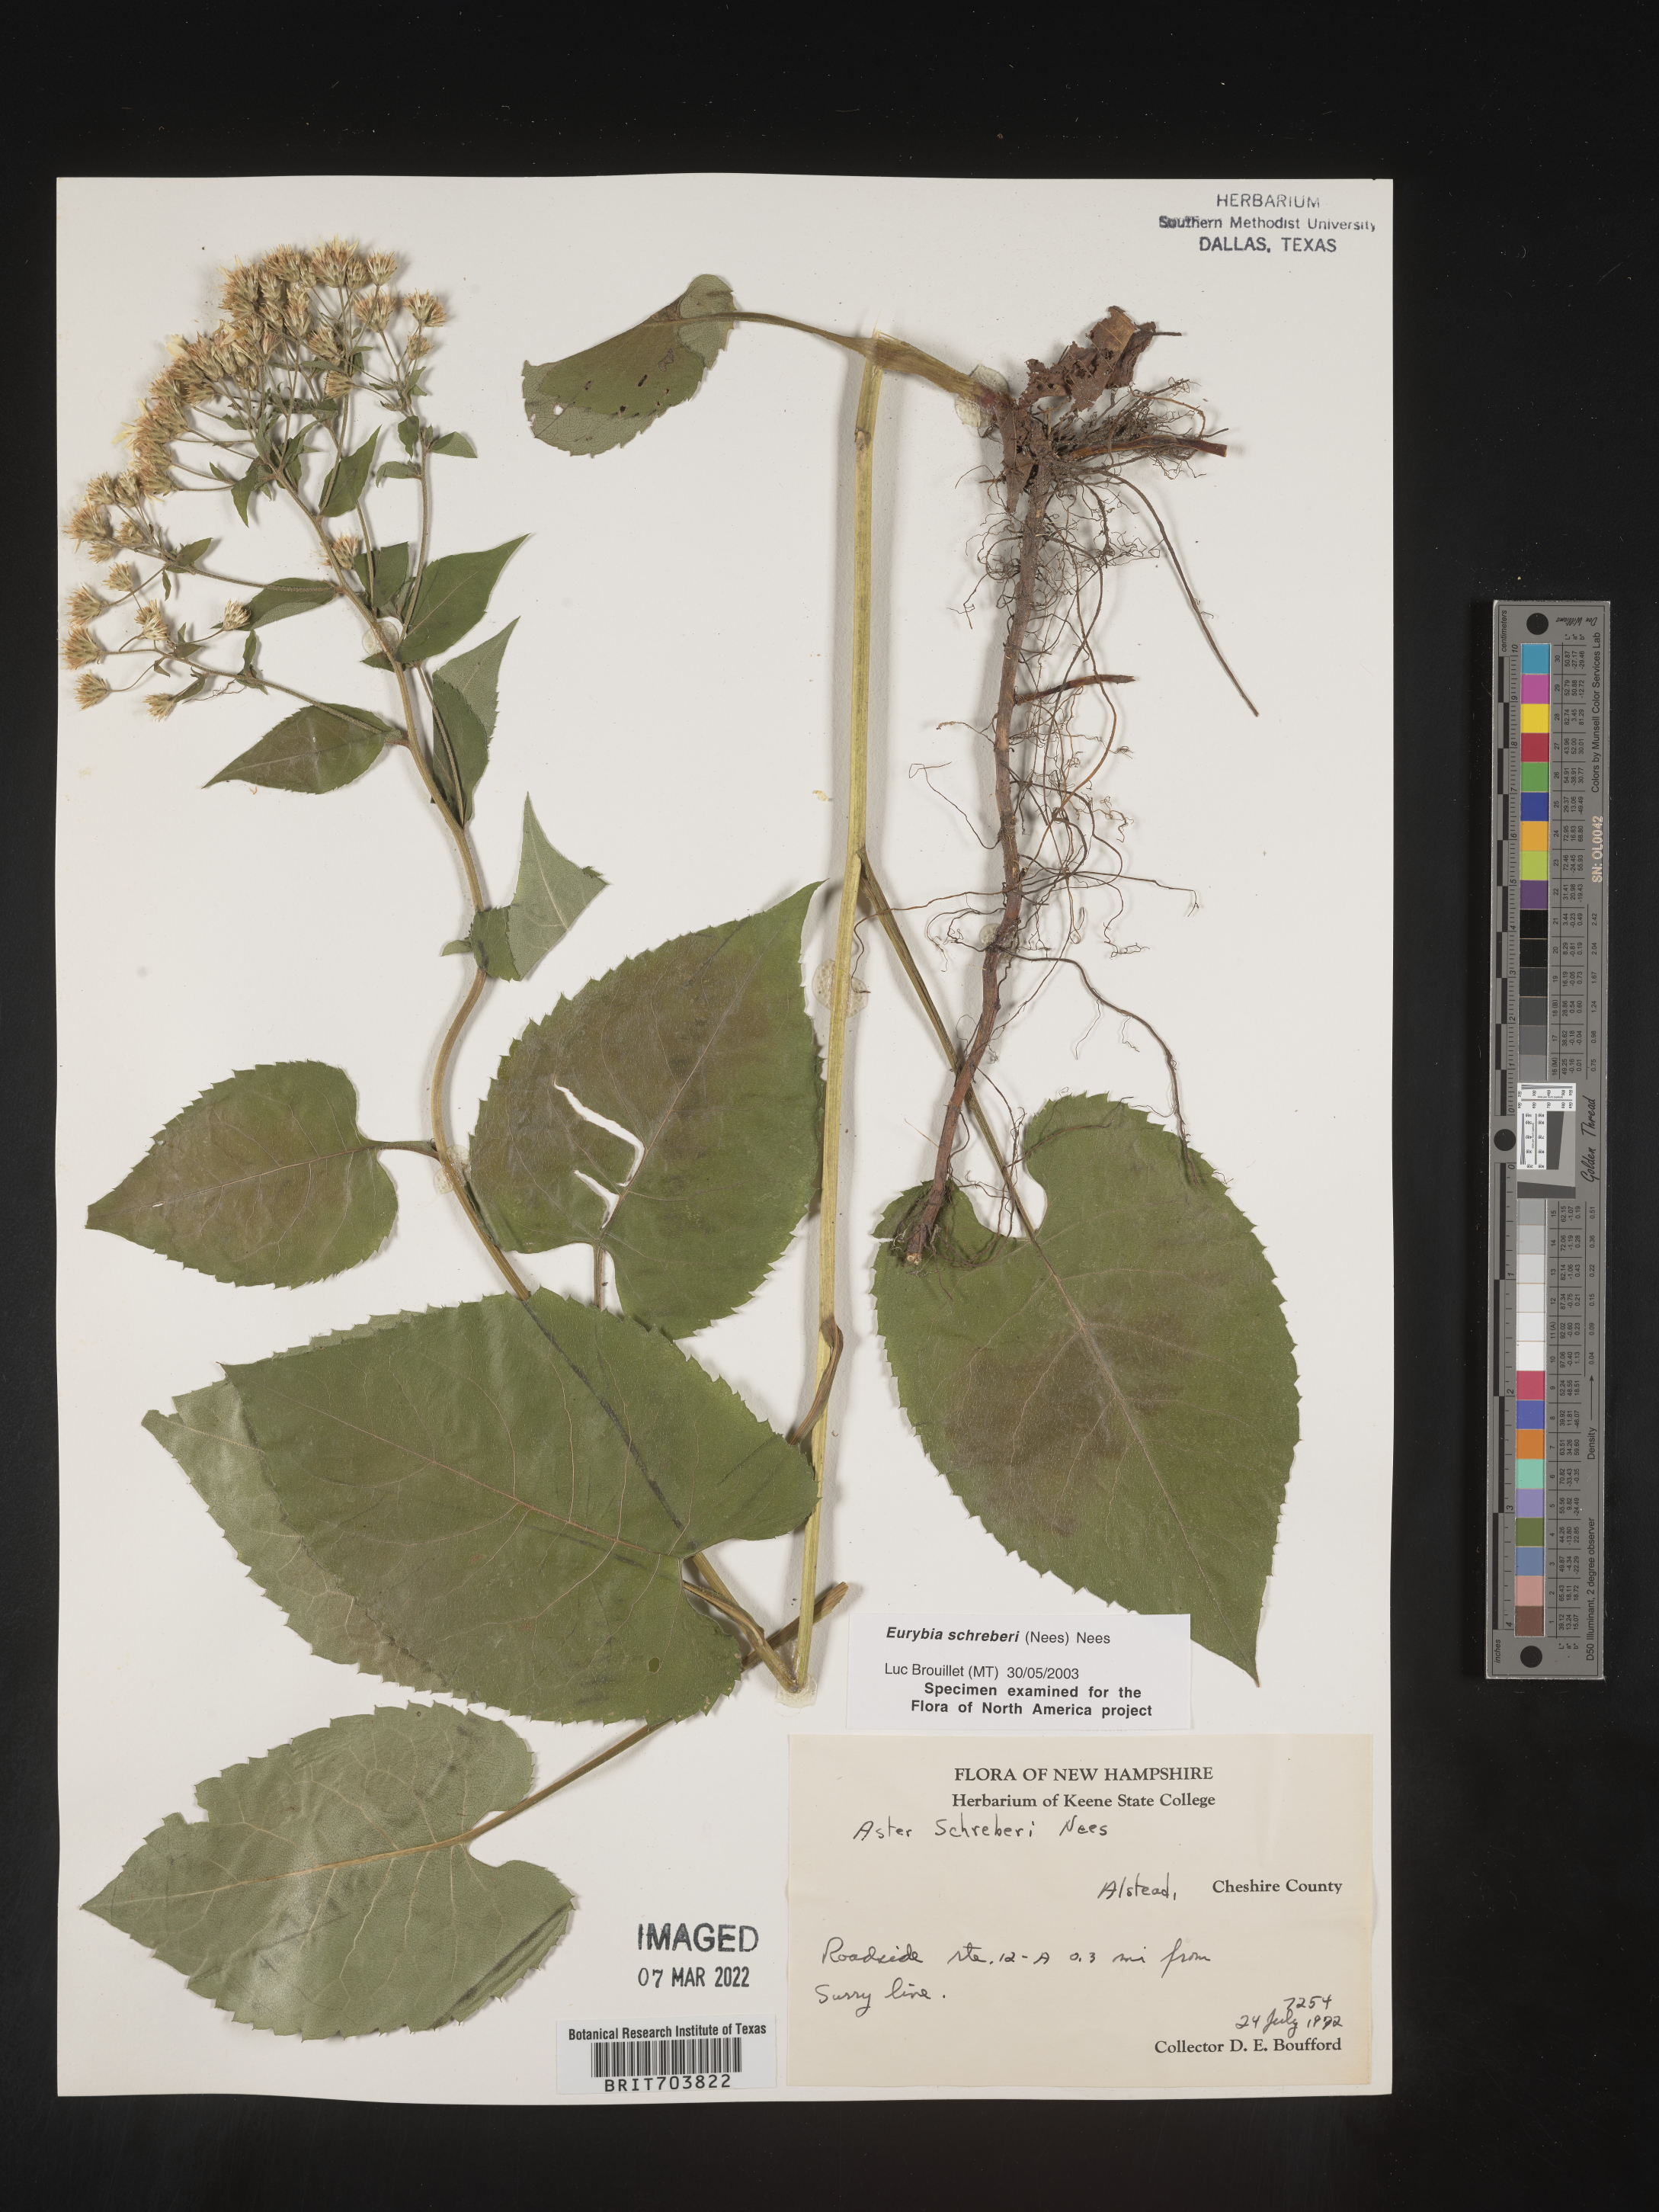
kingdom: Plantae
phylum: Tracheophyta
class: Magnoliopsida
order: Asterales
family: Asteraceae
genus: Eurybia
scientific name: Eurybia schreberi
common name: Schreber's aster
